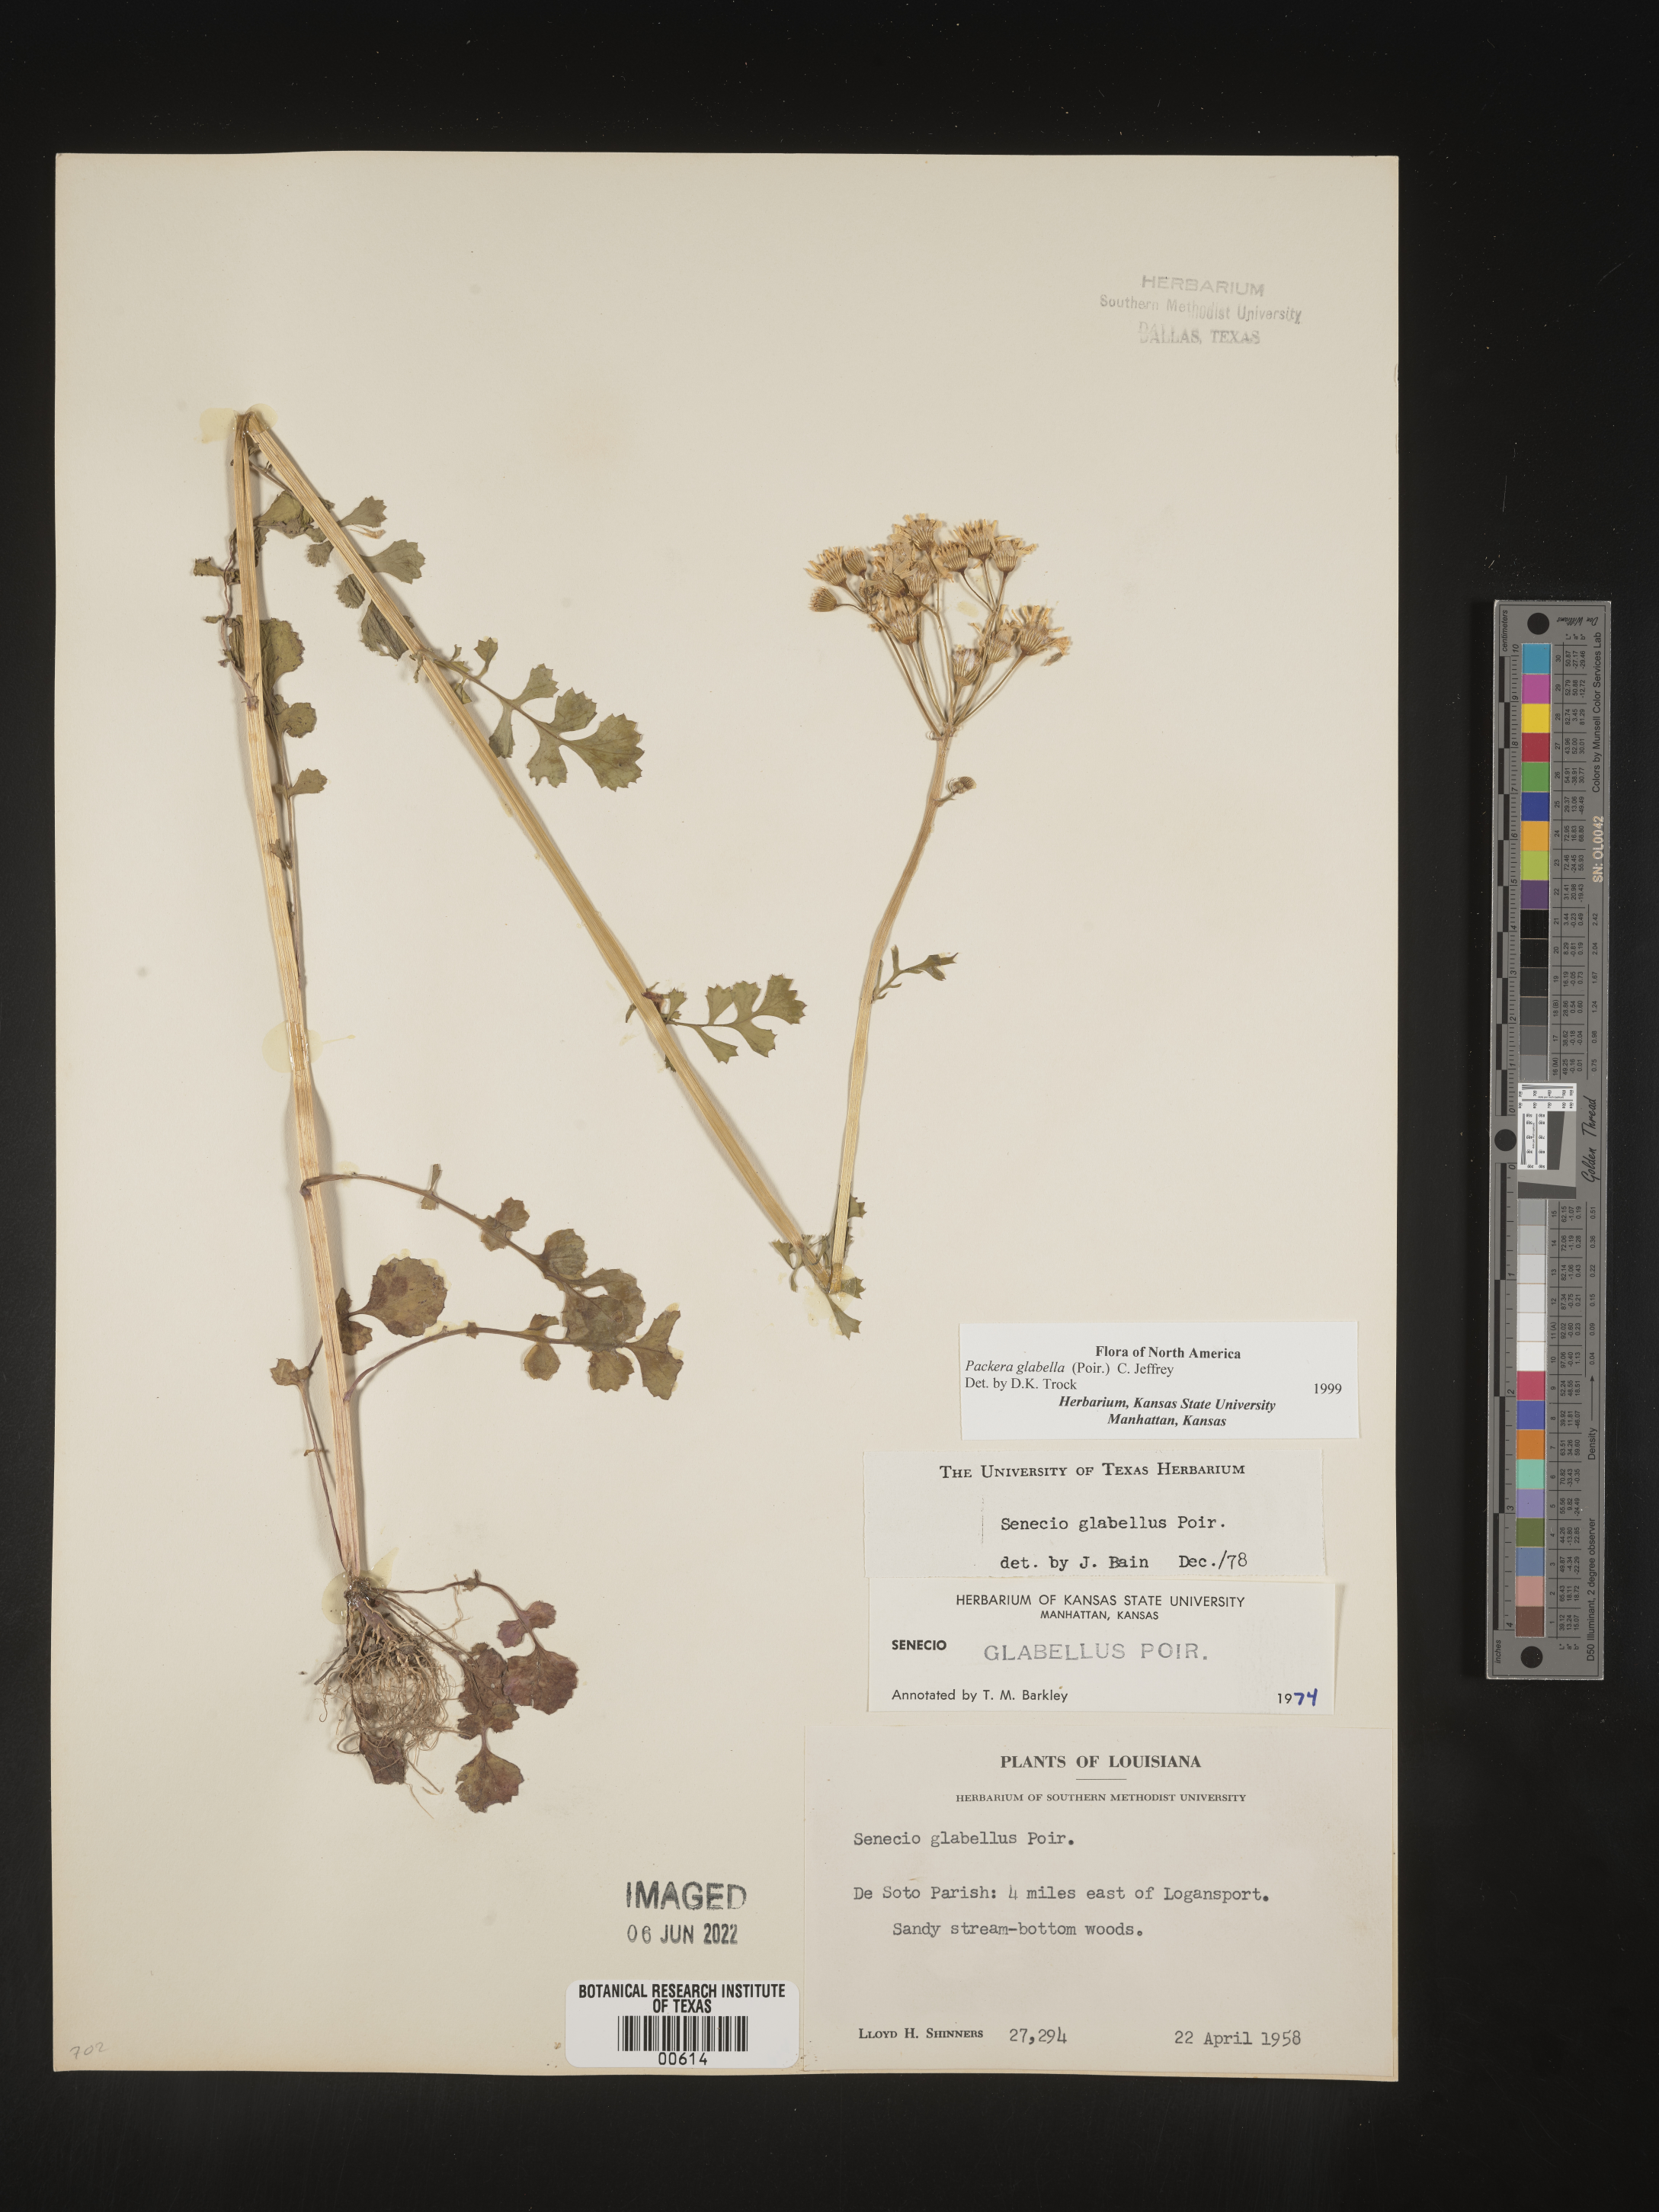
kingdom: Plantae
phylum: Tracheophyta
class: Magnoliopsida
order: Asterales
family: Asteraceae
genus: Packera
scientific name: Packera glabella
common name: Butterweed
